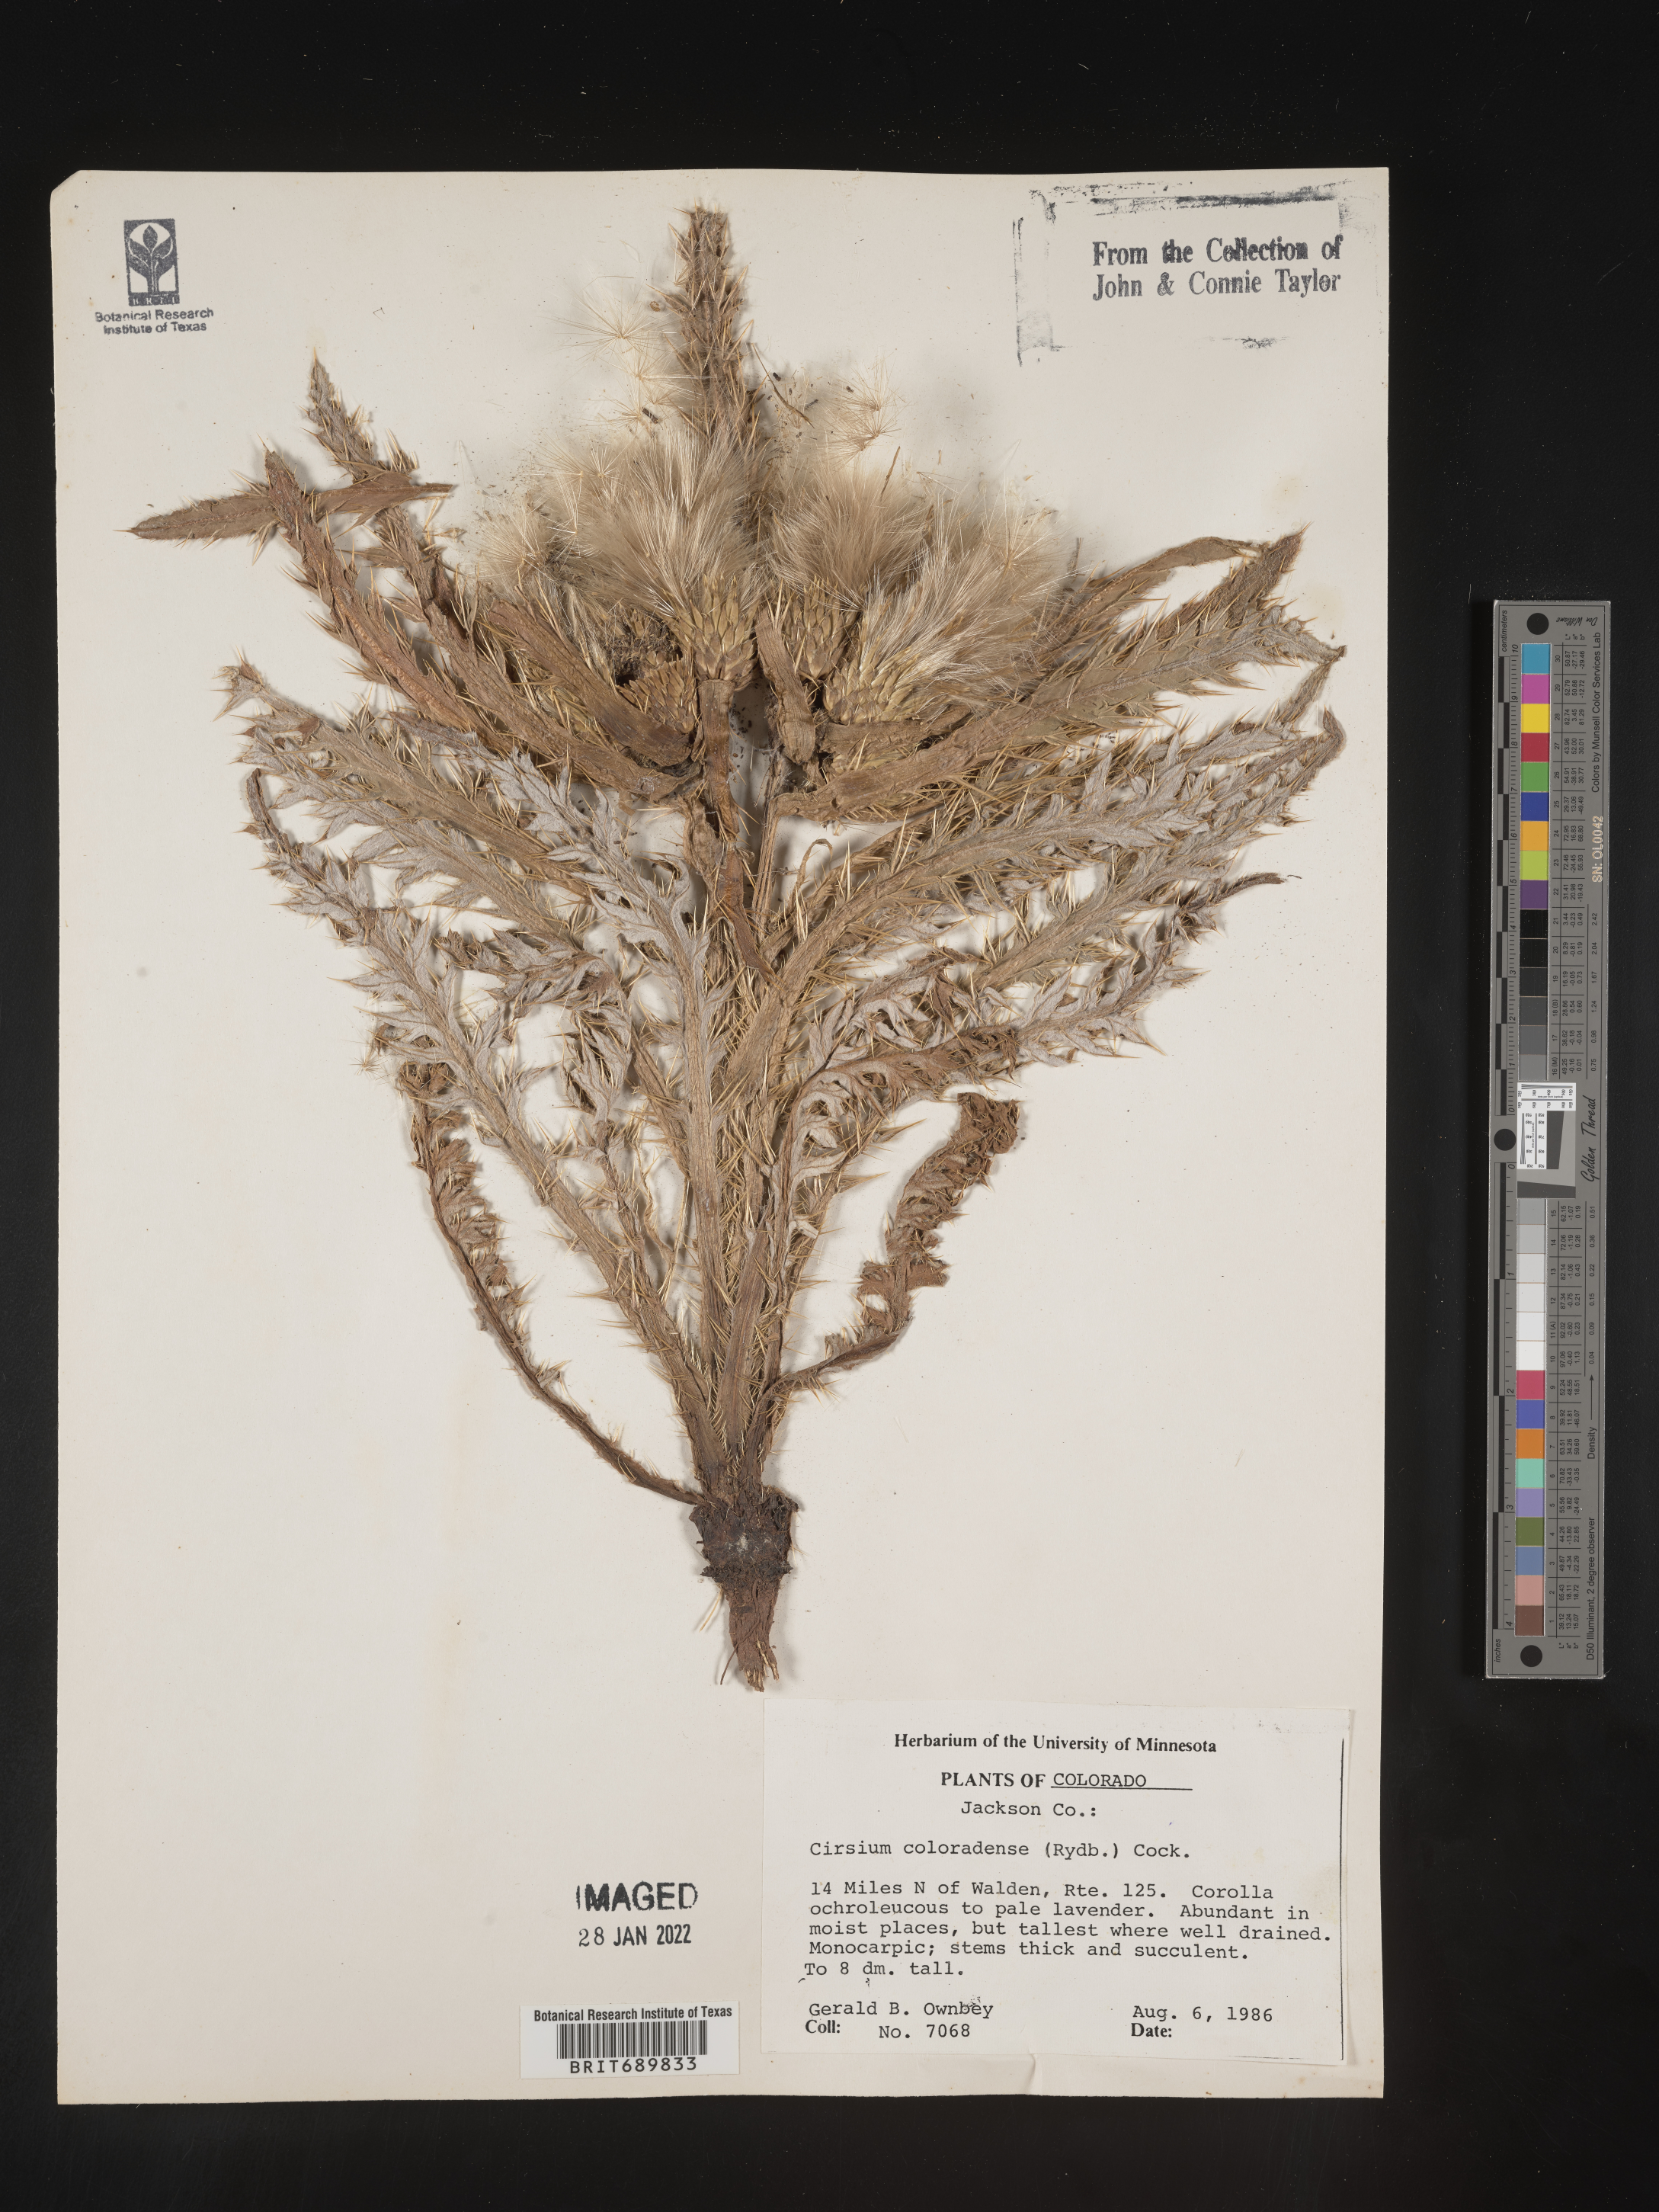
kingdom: Plantae
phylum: Tracheophyta
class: Magnoliopsida
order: Asterales
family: Asteraceae
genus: Cirsium
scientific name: Cirsium scariosum
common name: Meadow thistle
